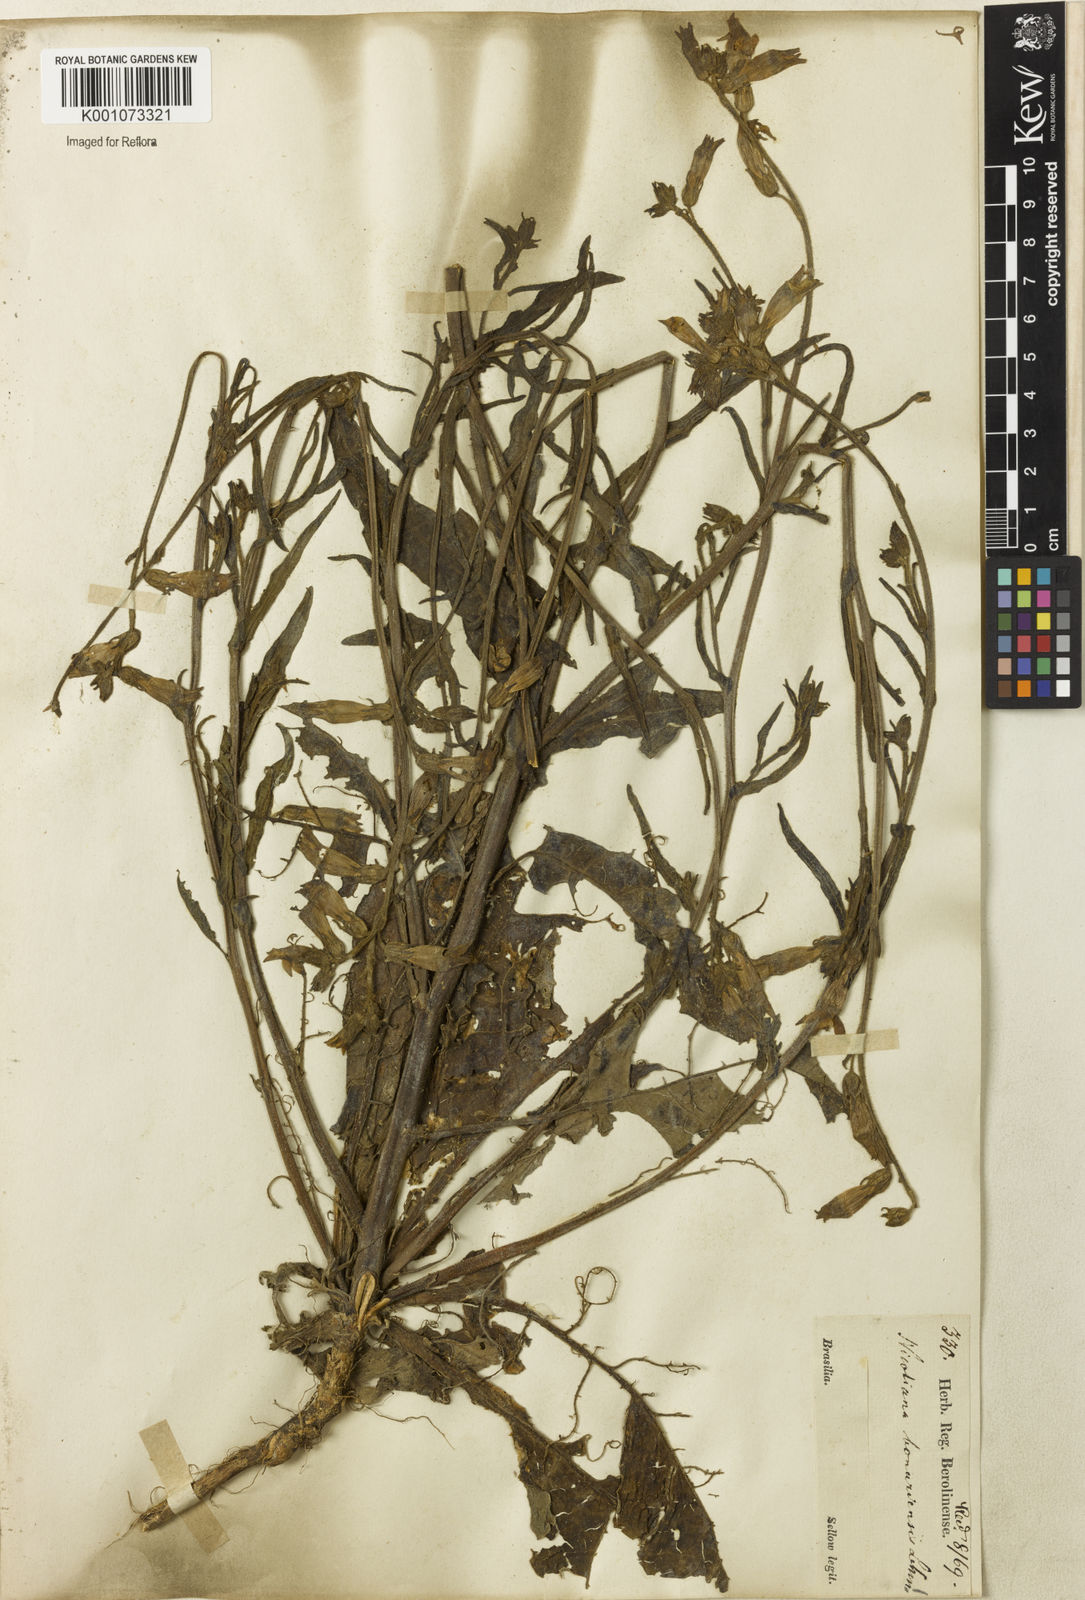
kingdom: Plantae
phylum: Tracheophyta
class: Magnoliopsida
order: Solanales
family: Solanaceae
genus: Nicotiana
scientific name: Nicotiana bonariensis
